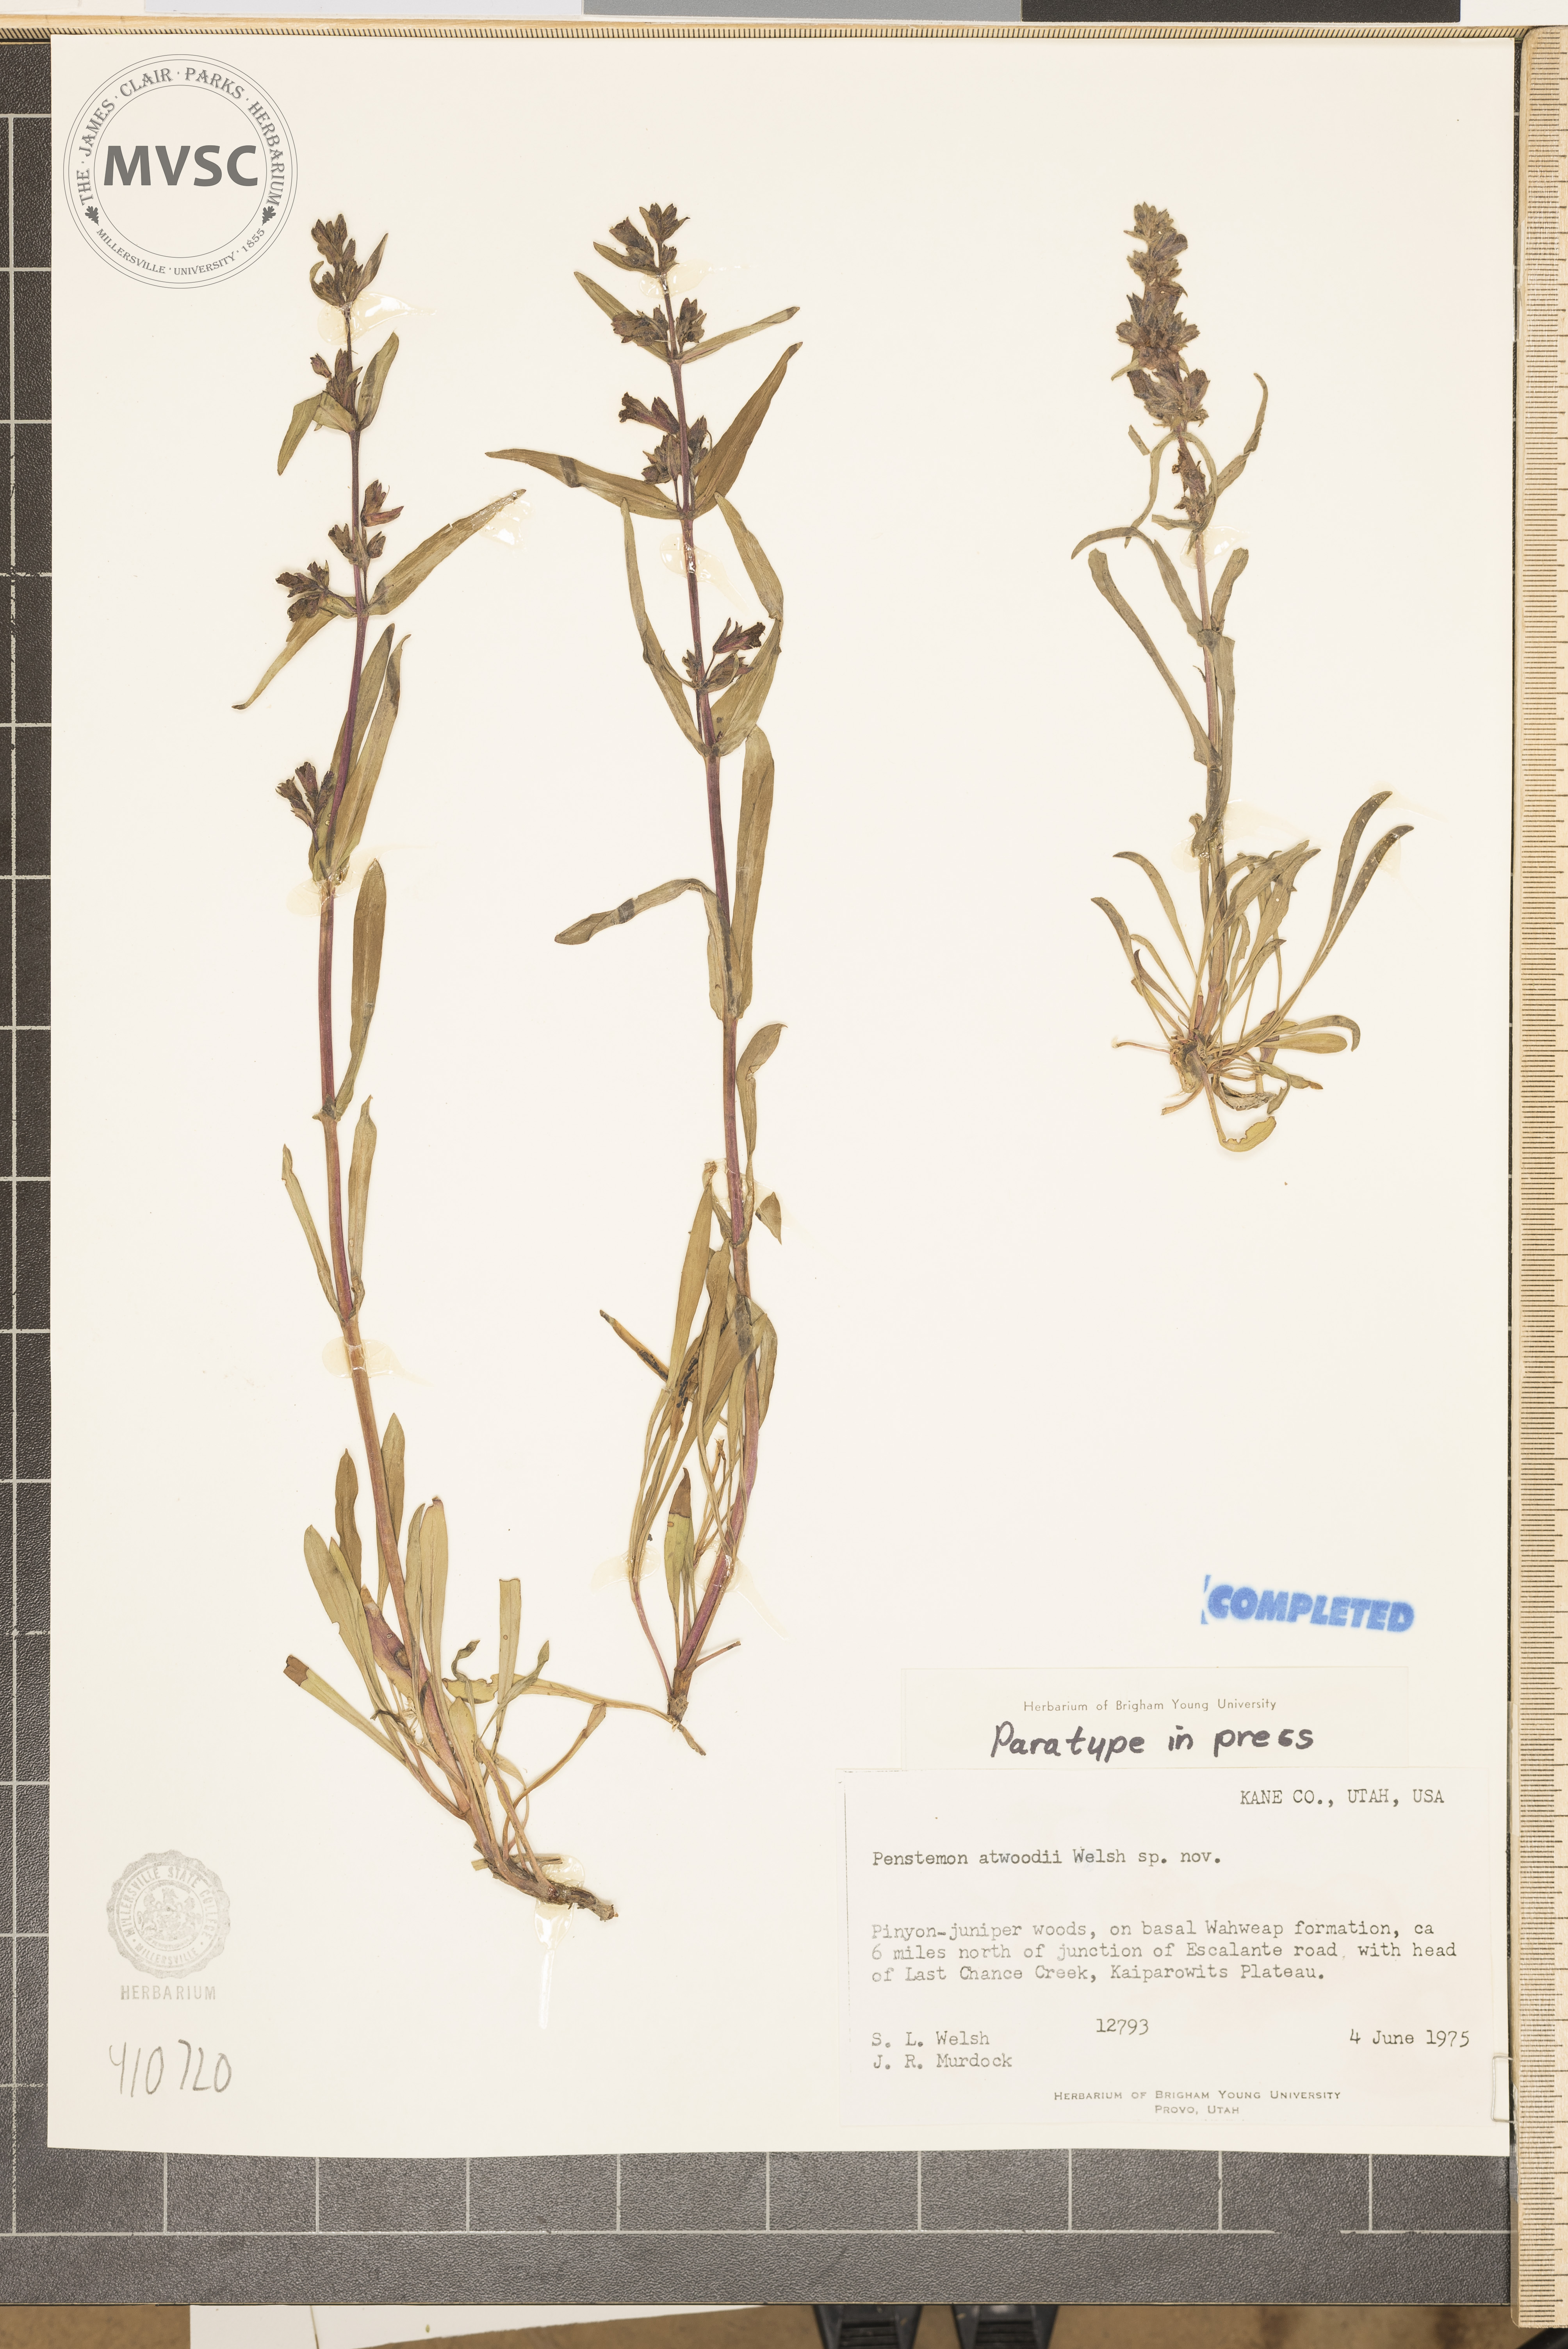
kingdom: Plantae
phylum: Tracheophyta
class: Magnoliopsida
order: Lamiales
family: Plantaginaceae
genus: Penstemon
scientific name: Penstemon atwoodii
